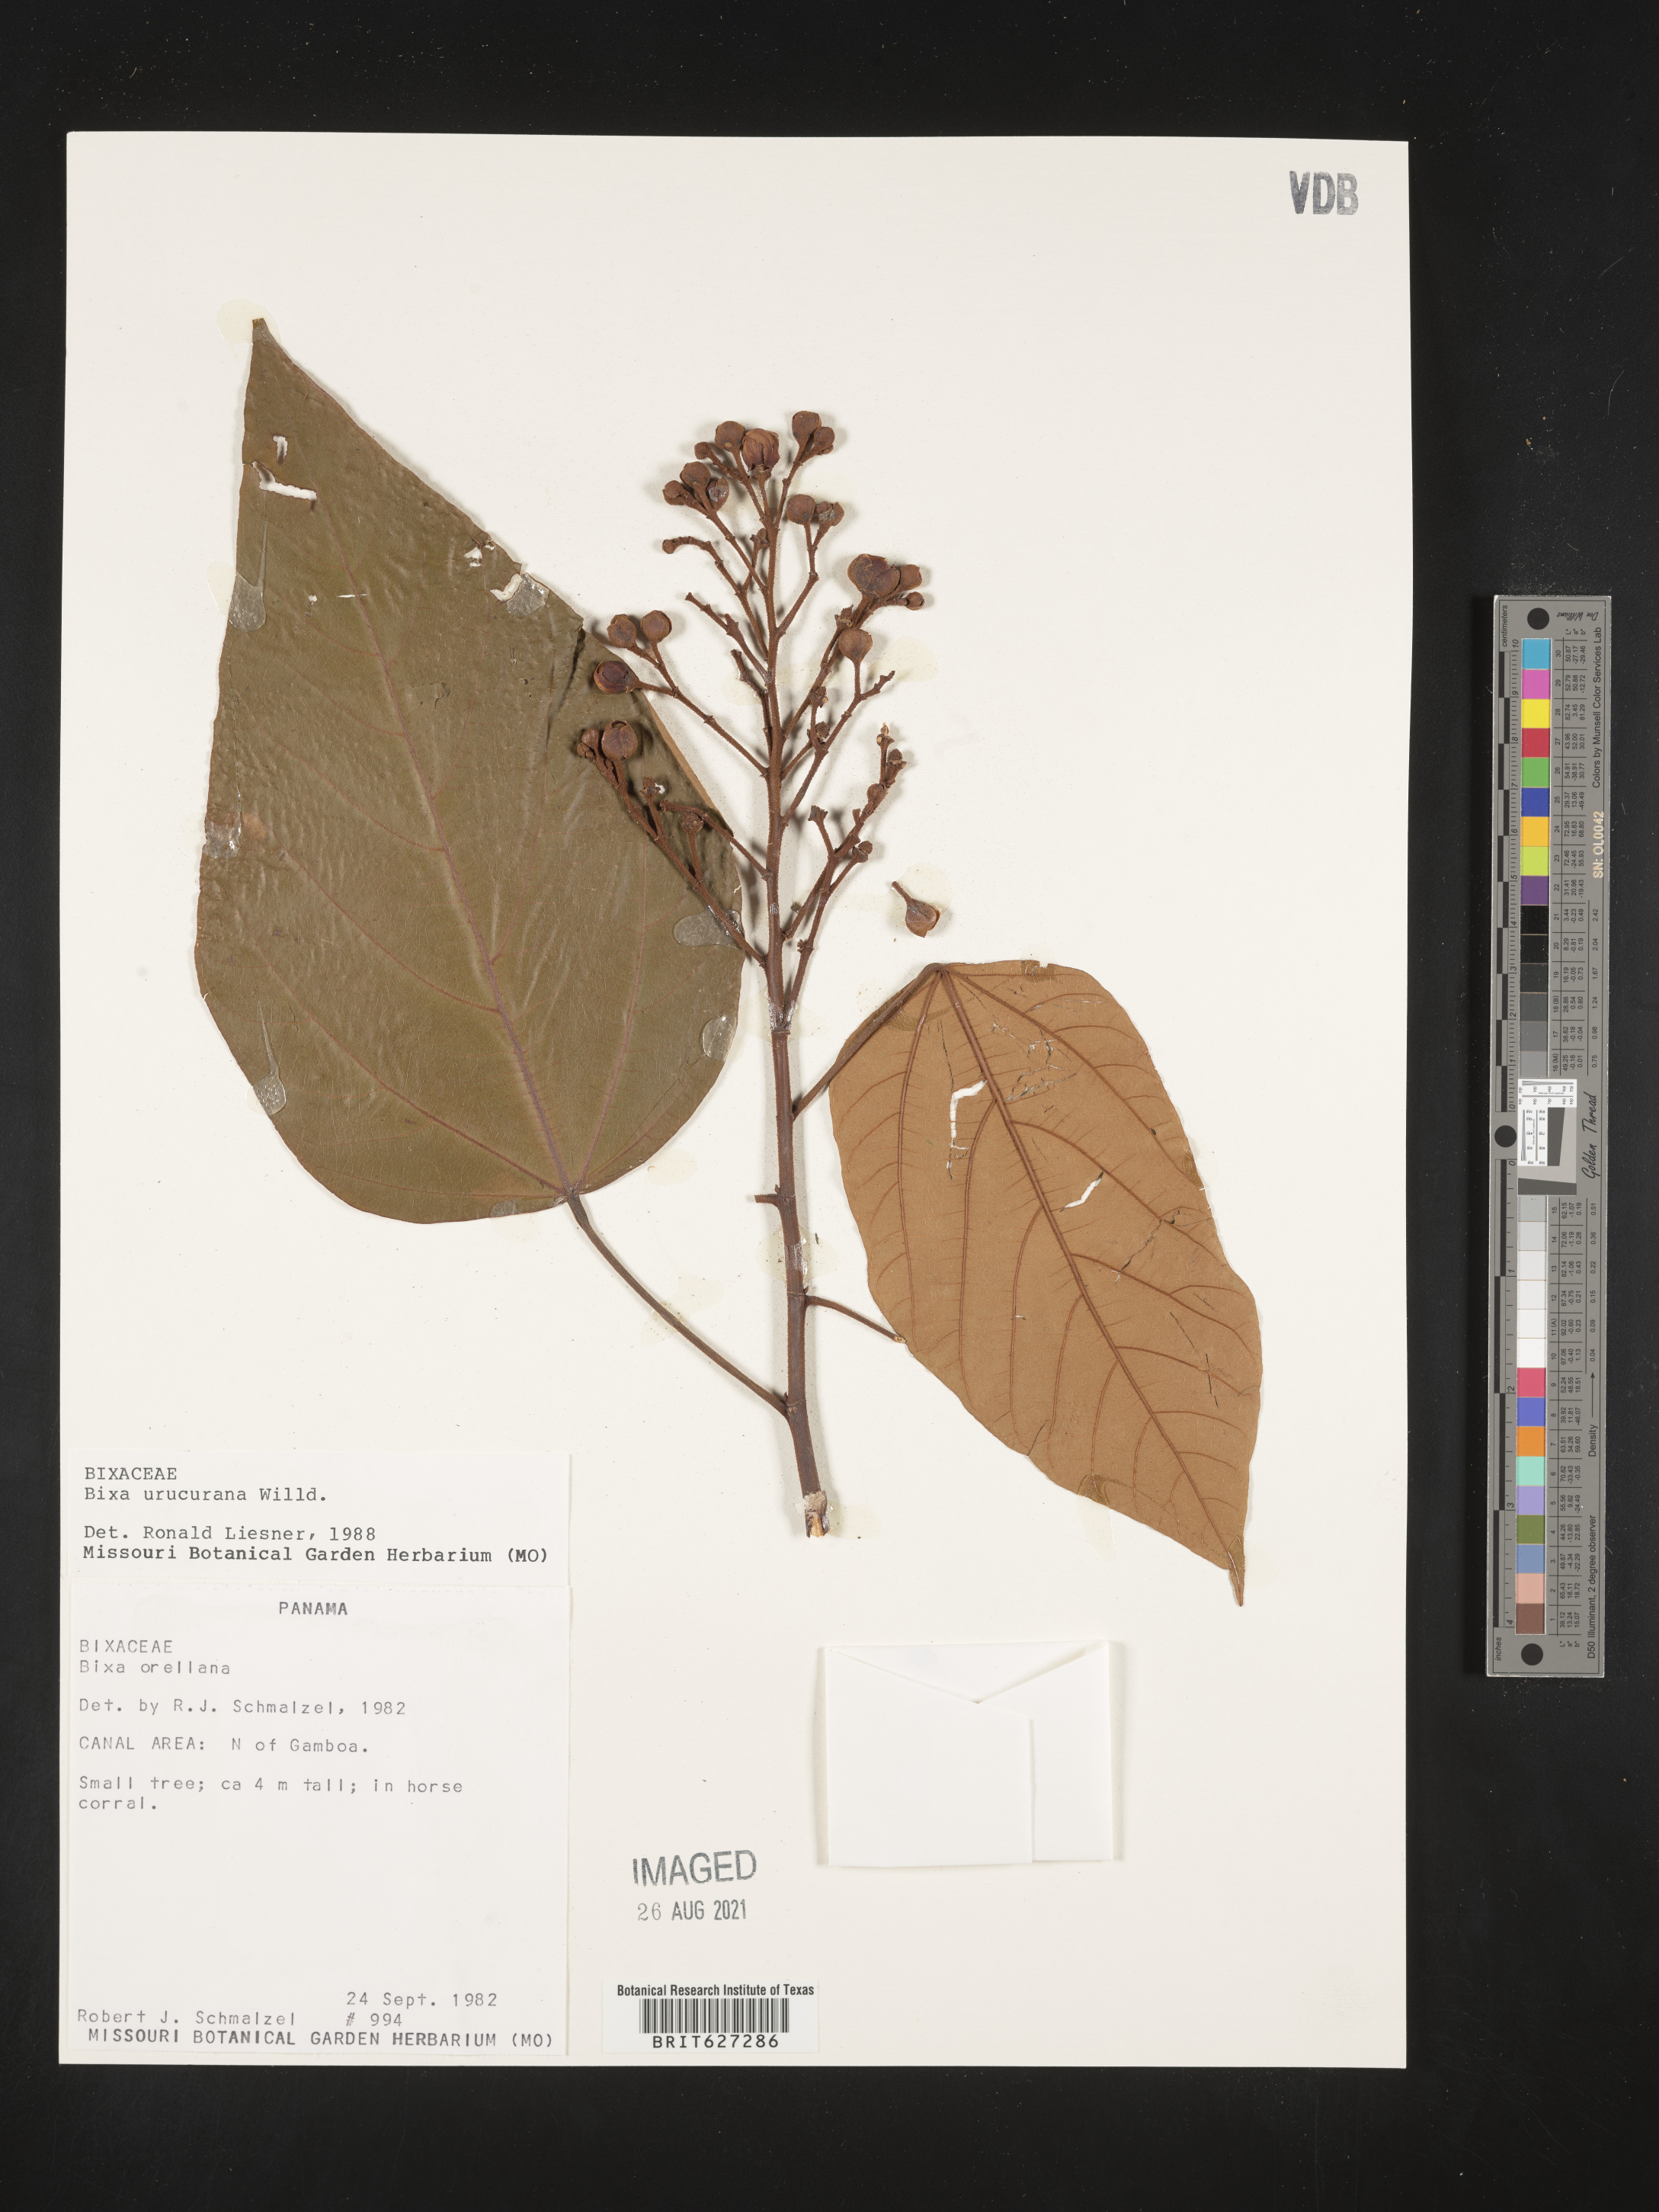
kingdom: Plantae
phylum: Tracheophyta
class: Magnoliopsida
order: Malvales
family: Bixaceae
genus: Bixa
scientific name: Bixa orellana
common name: Lipsticktree
